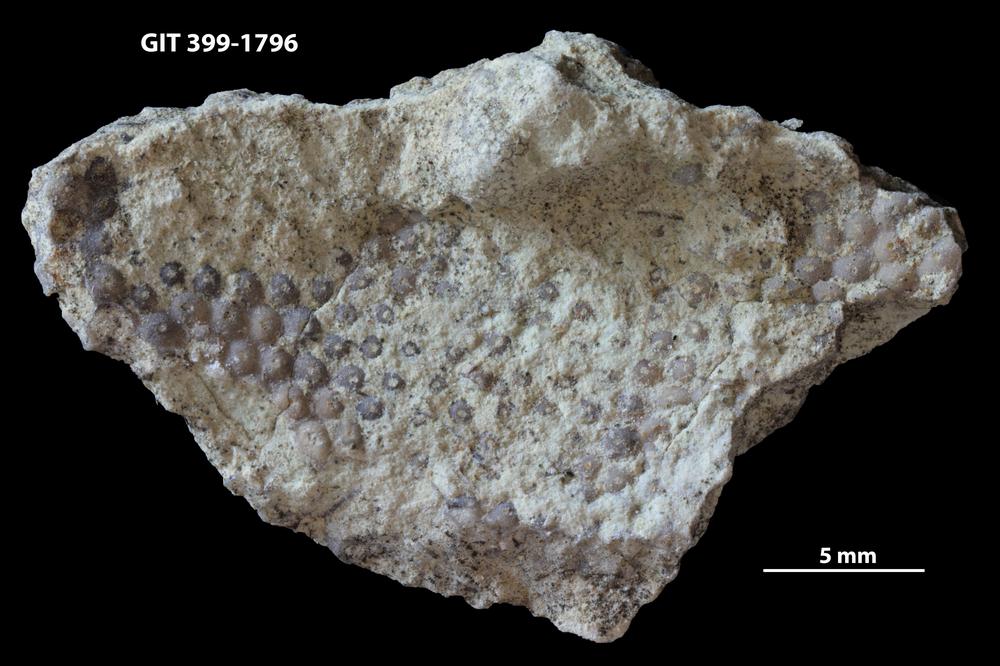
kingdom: Plantae
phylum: Chlorophyta
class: Ulvophyceae
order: Cyclocrinales
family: Cyclocrinaceae
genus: Mastopora
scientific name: Mastopora concava
